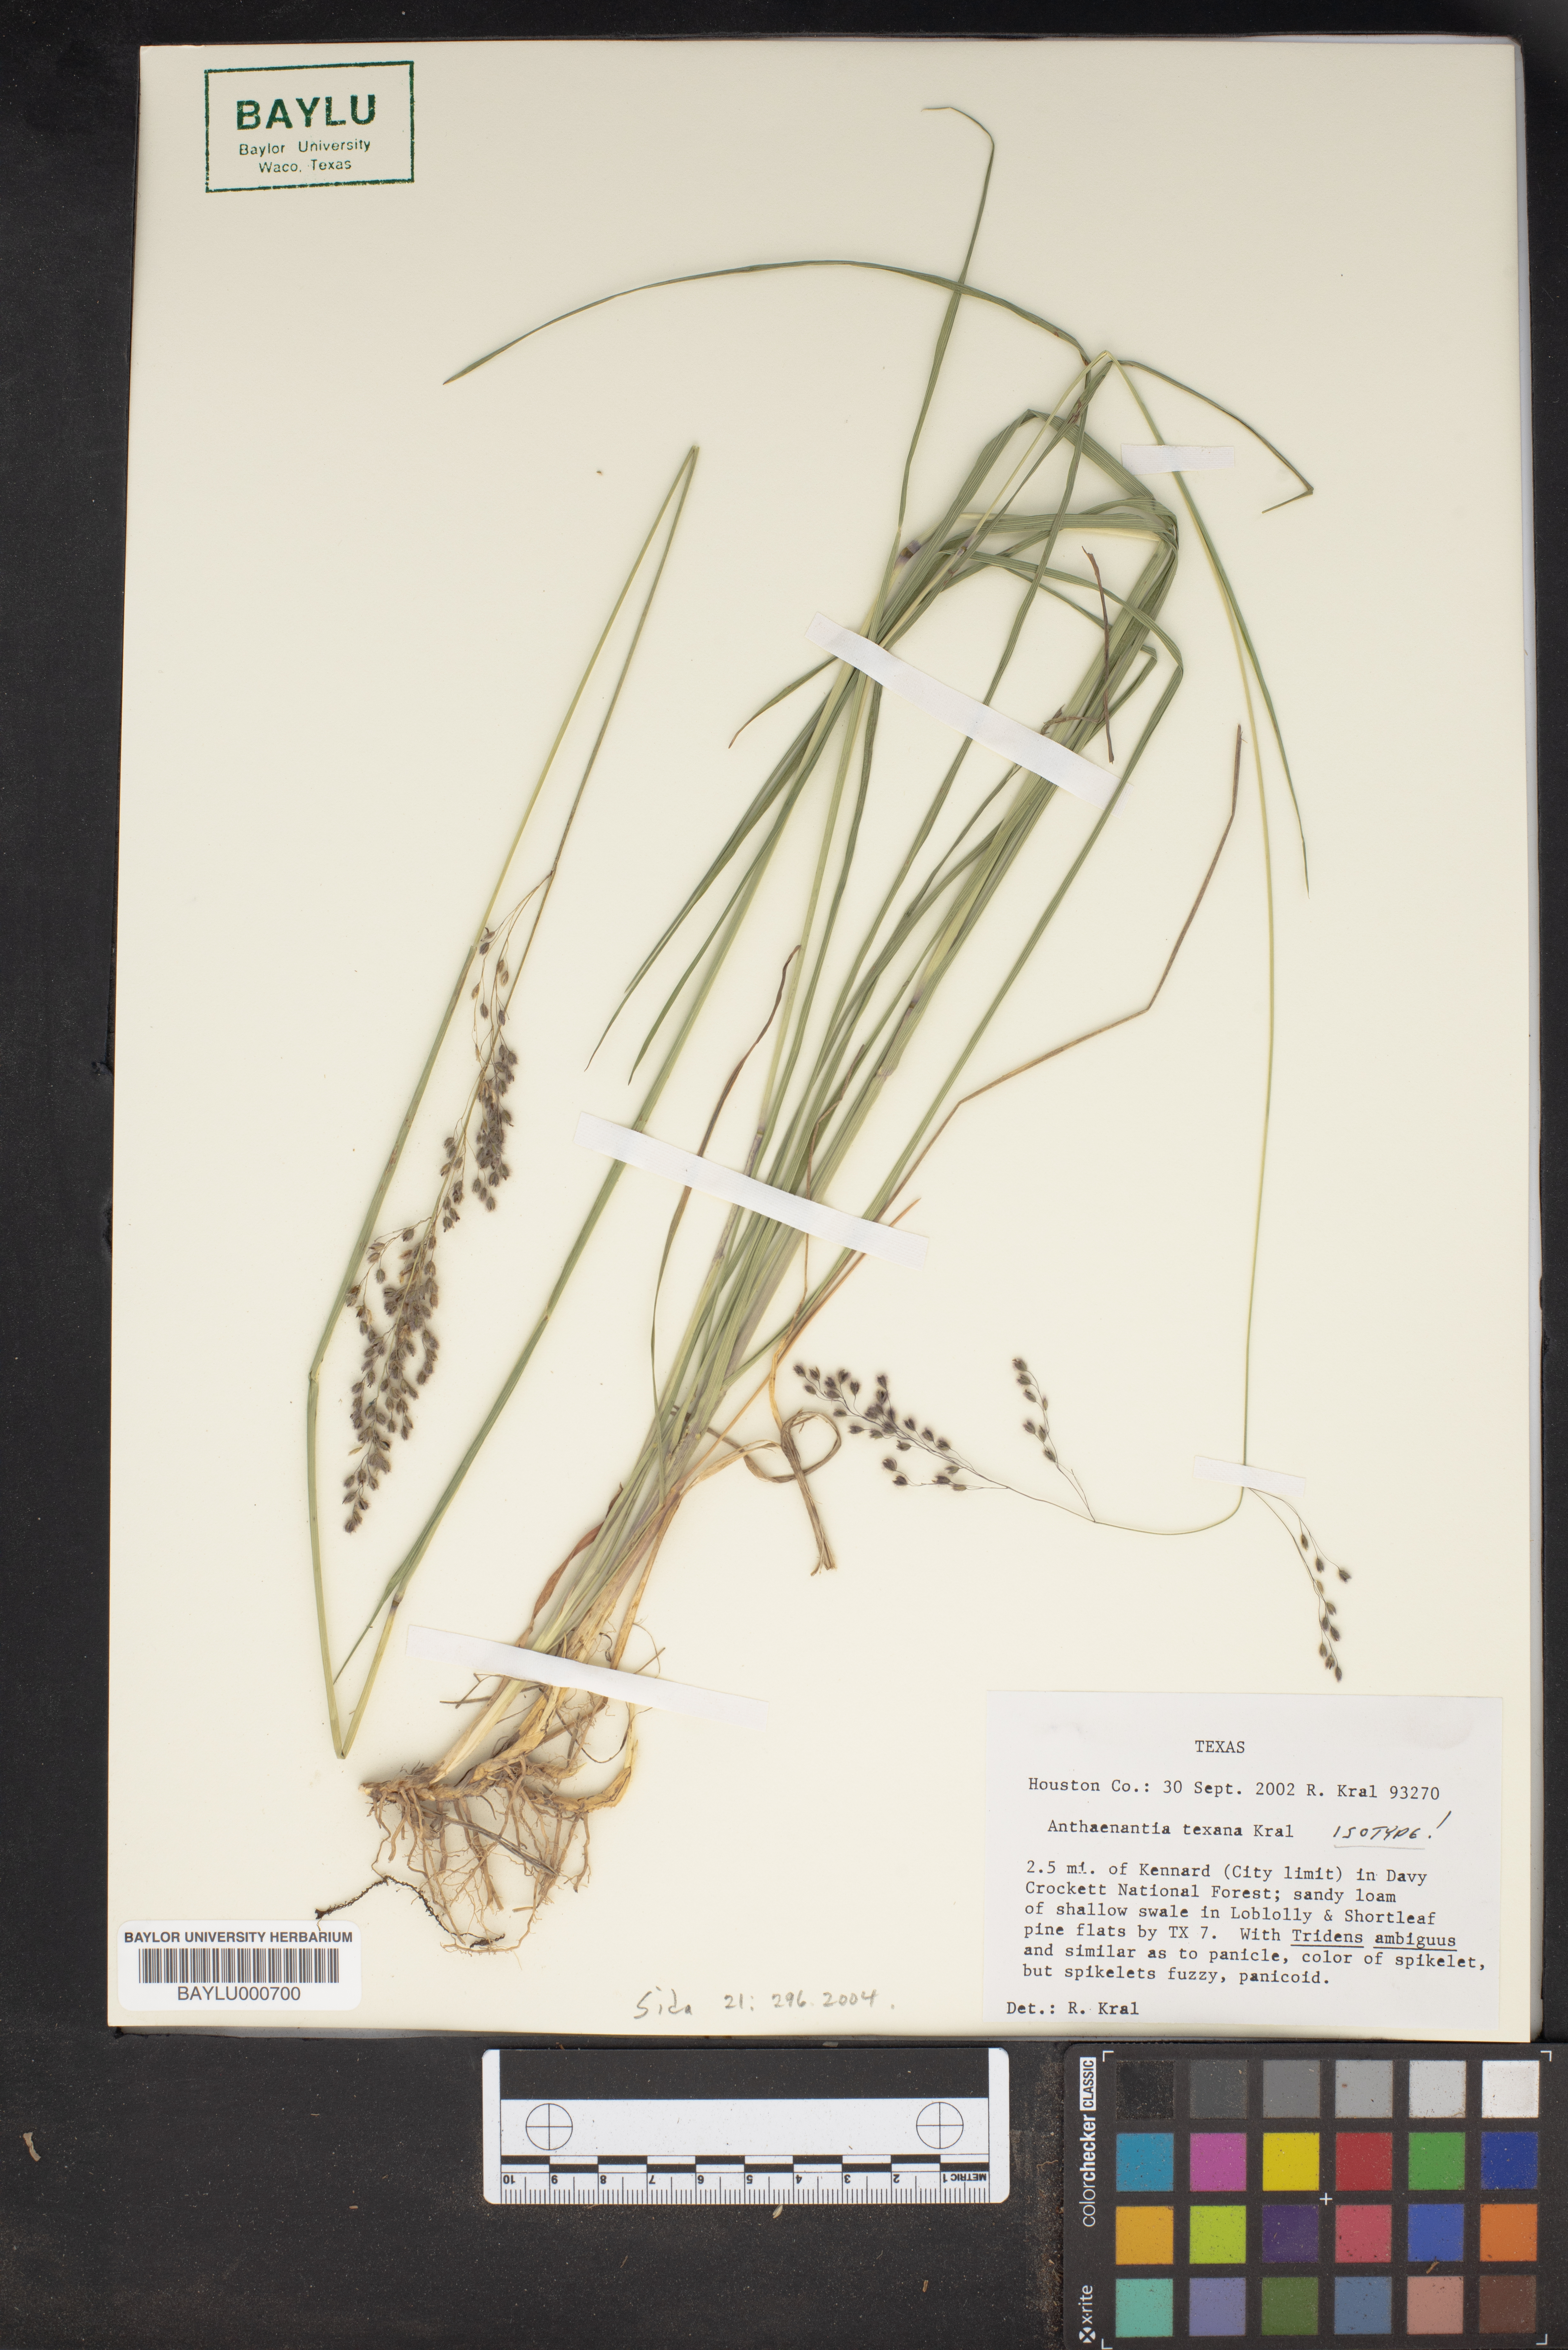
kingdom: Plantae
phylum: Tracheophyta
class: Liliopsida
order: Poales
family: Poaceae
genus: Anthaenantia
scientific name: Anthaenantia texana
